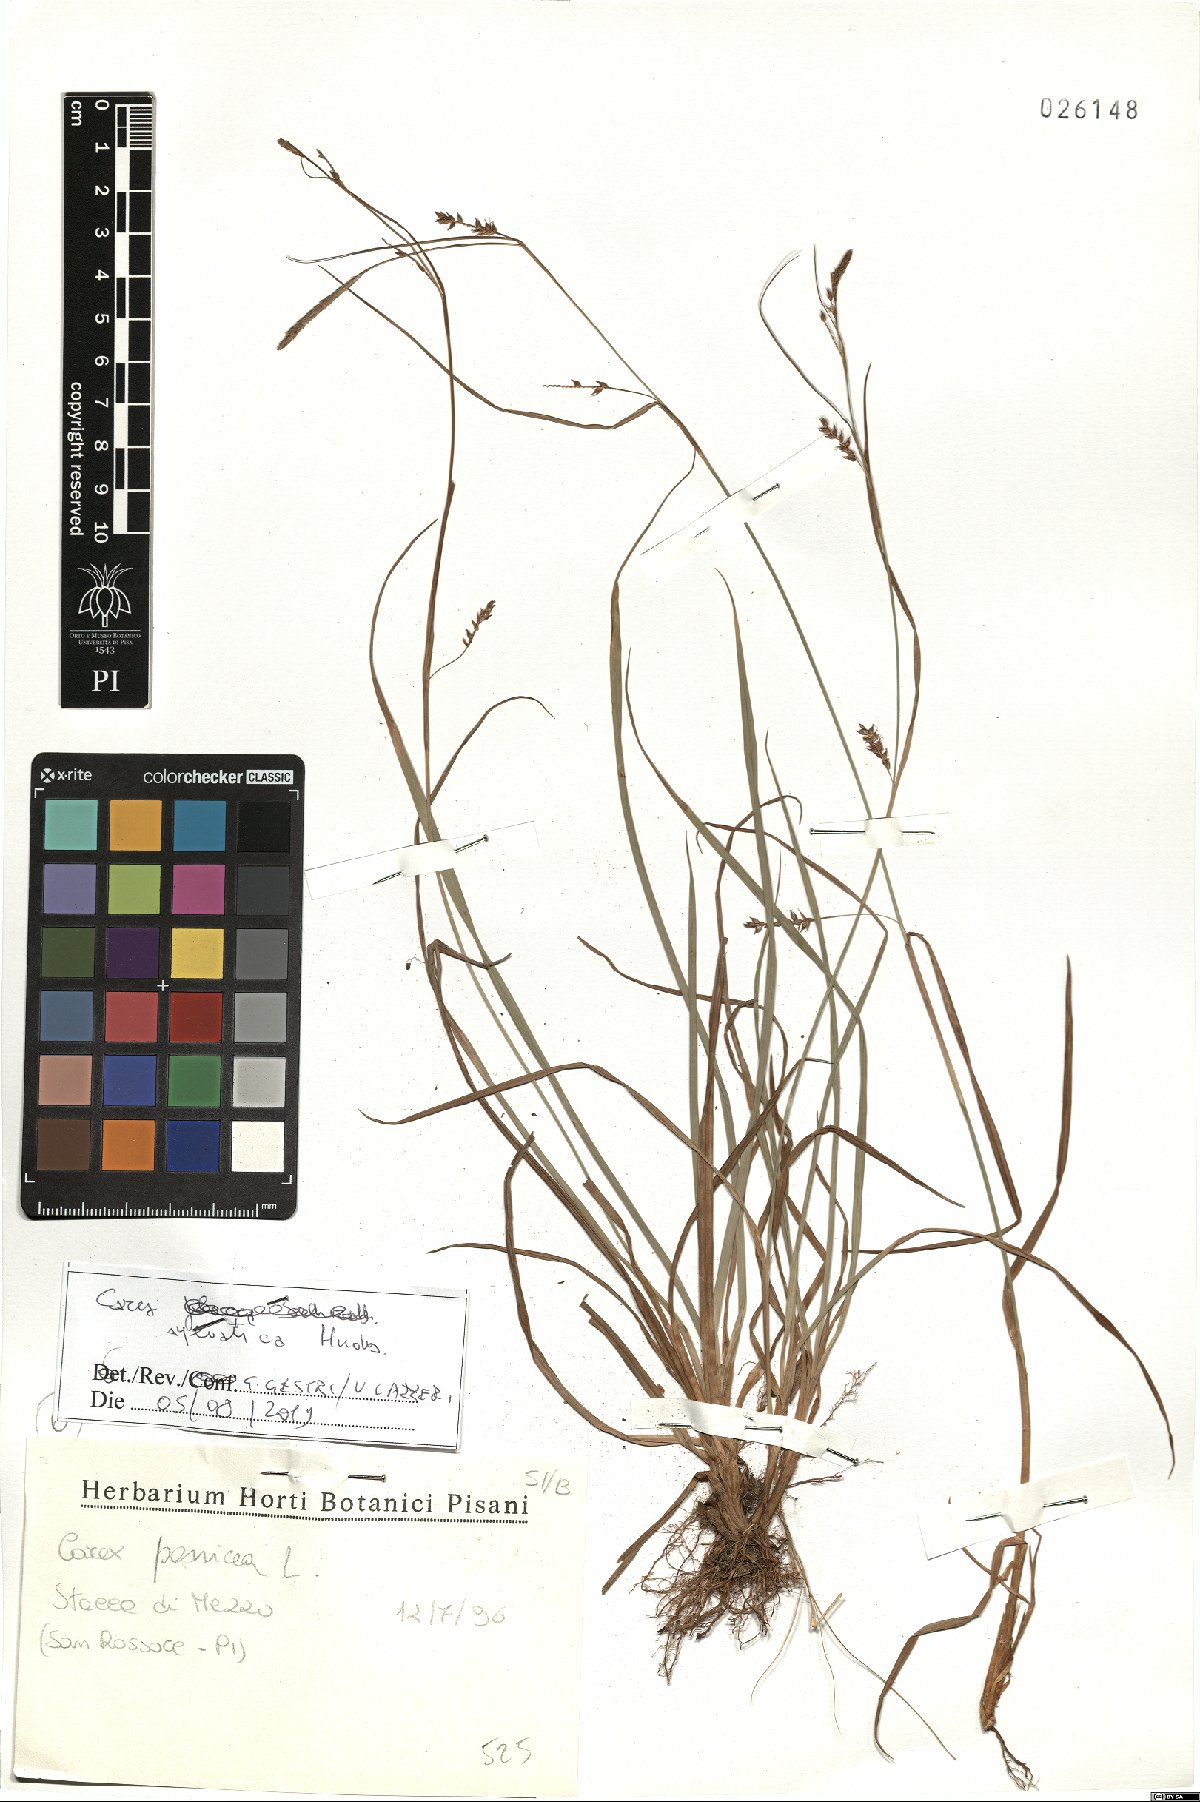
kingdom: Plantae
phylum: Tracheophyta
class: Liliopsida
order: Poales
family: Cyperaceae
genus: Carex
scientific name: Carex sylvatica
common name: Wood-sedge
